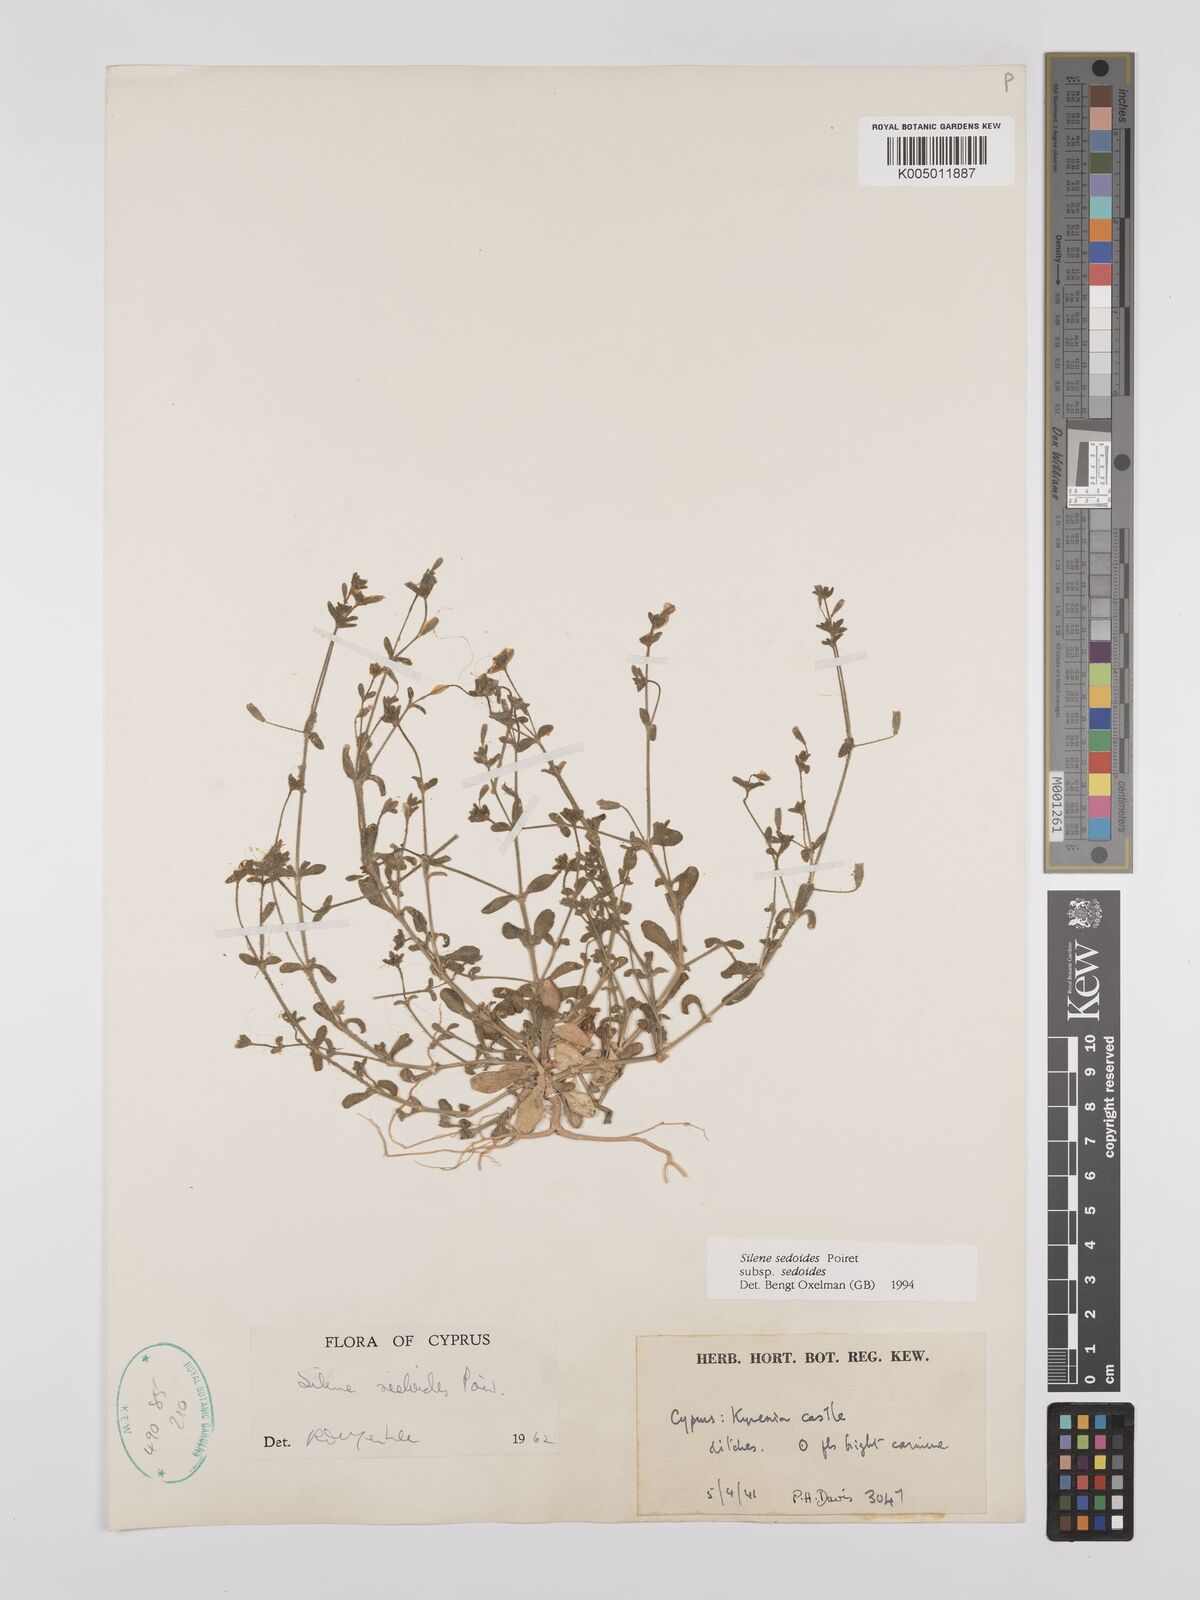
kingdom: Plantae
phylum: Tracheophyta
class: Magnoliopsida
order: Caryophyllales
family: Caryophyllaceae
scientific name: Caryophyllaceae
